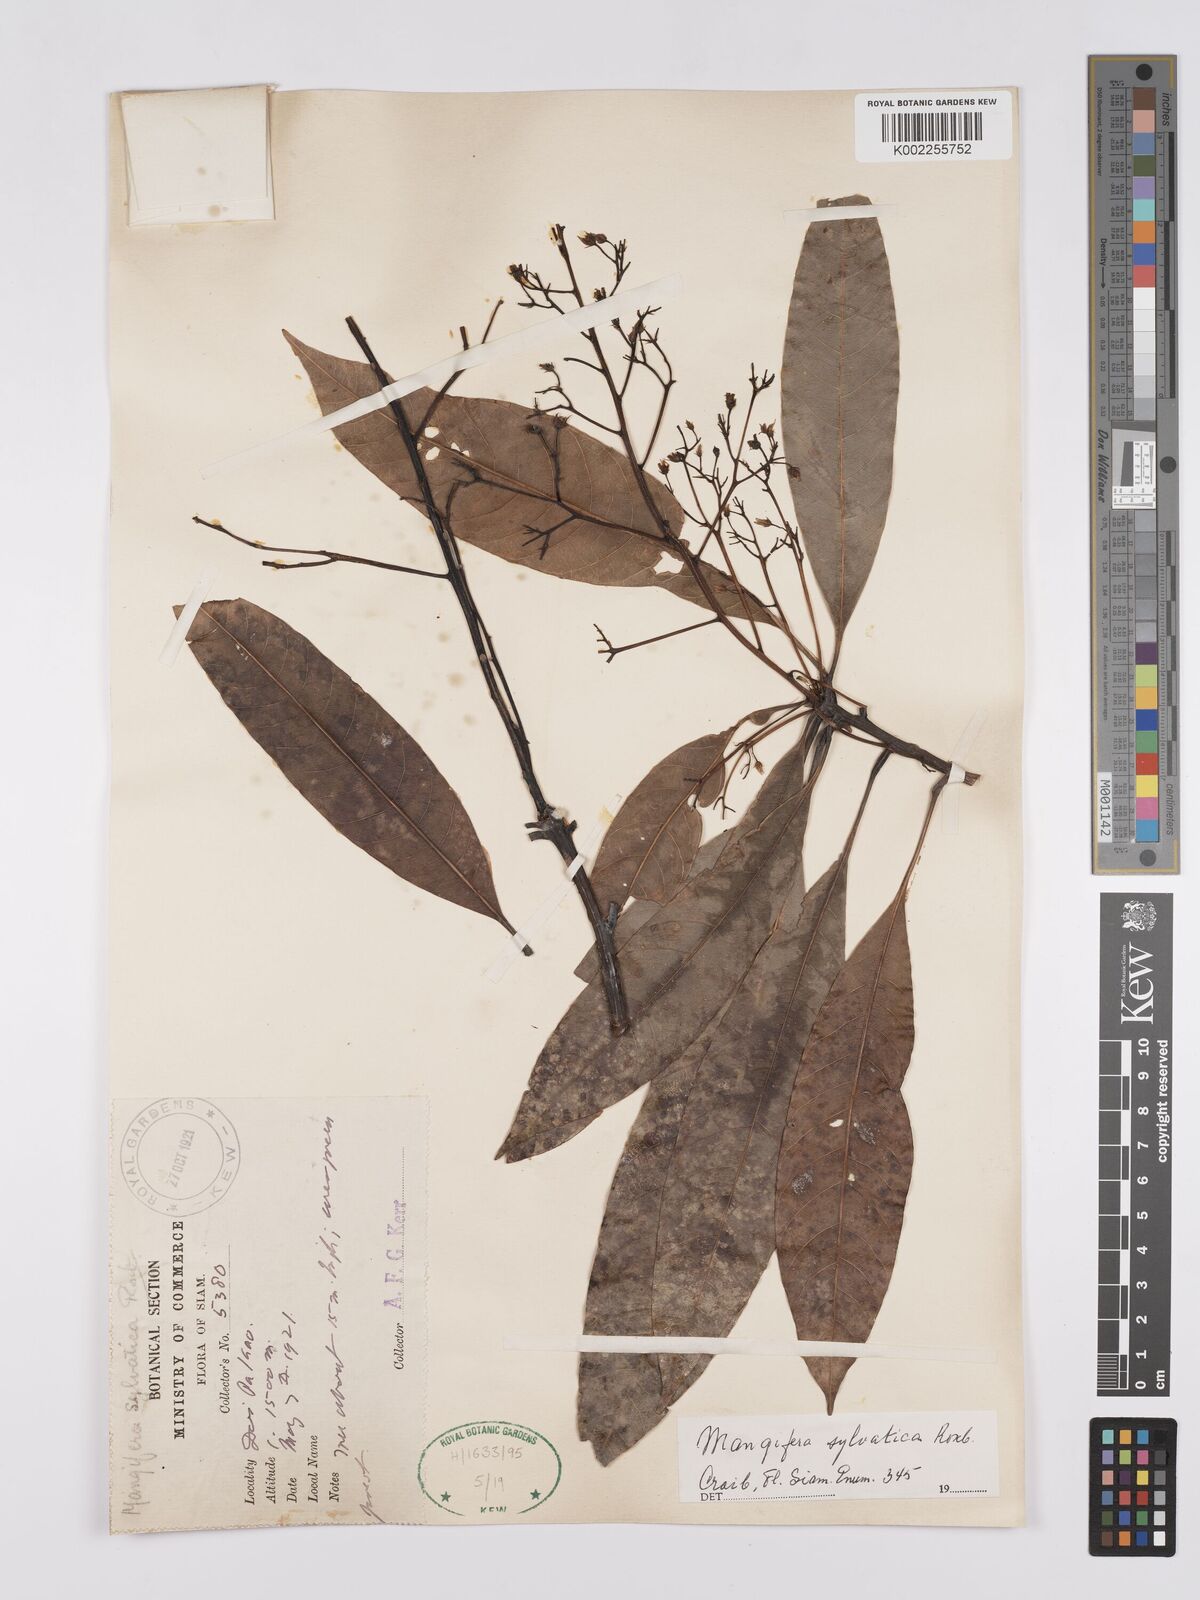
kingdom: Plantae
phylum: Tracheophyta
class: Magnoliopsida
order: Sapindales
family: Anacardiaceae
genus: Mangifera
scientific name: Mangifera sylvatica
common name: Nepal mango
